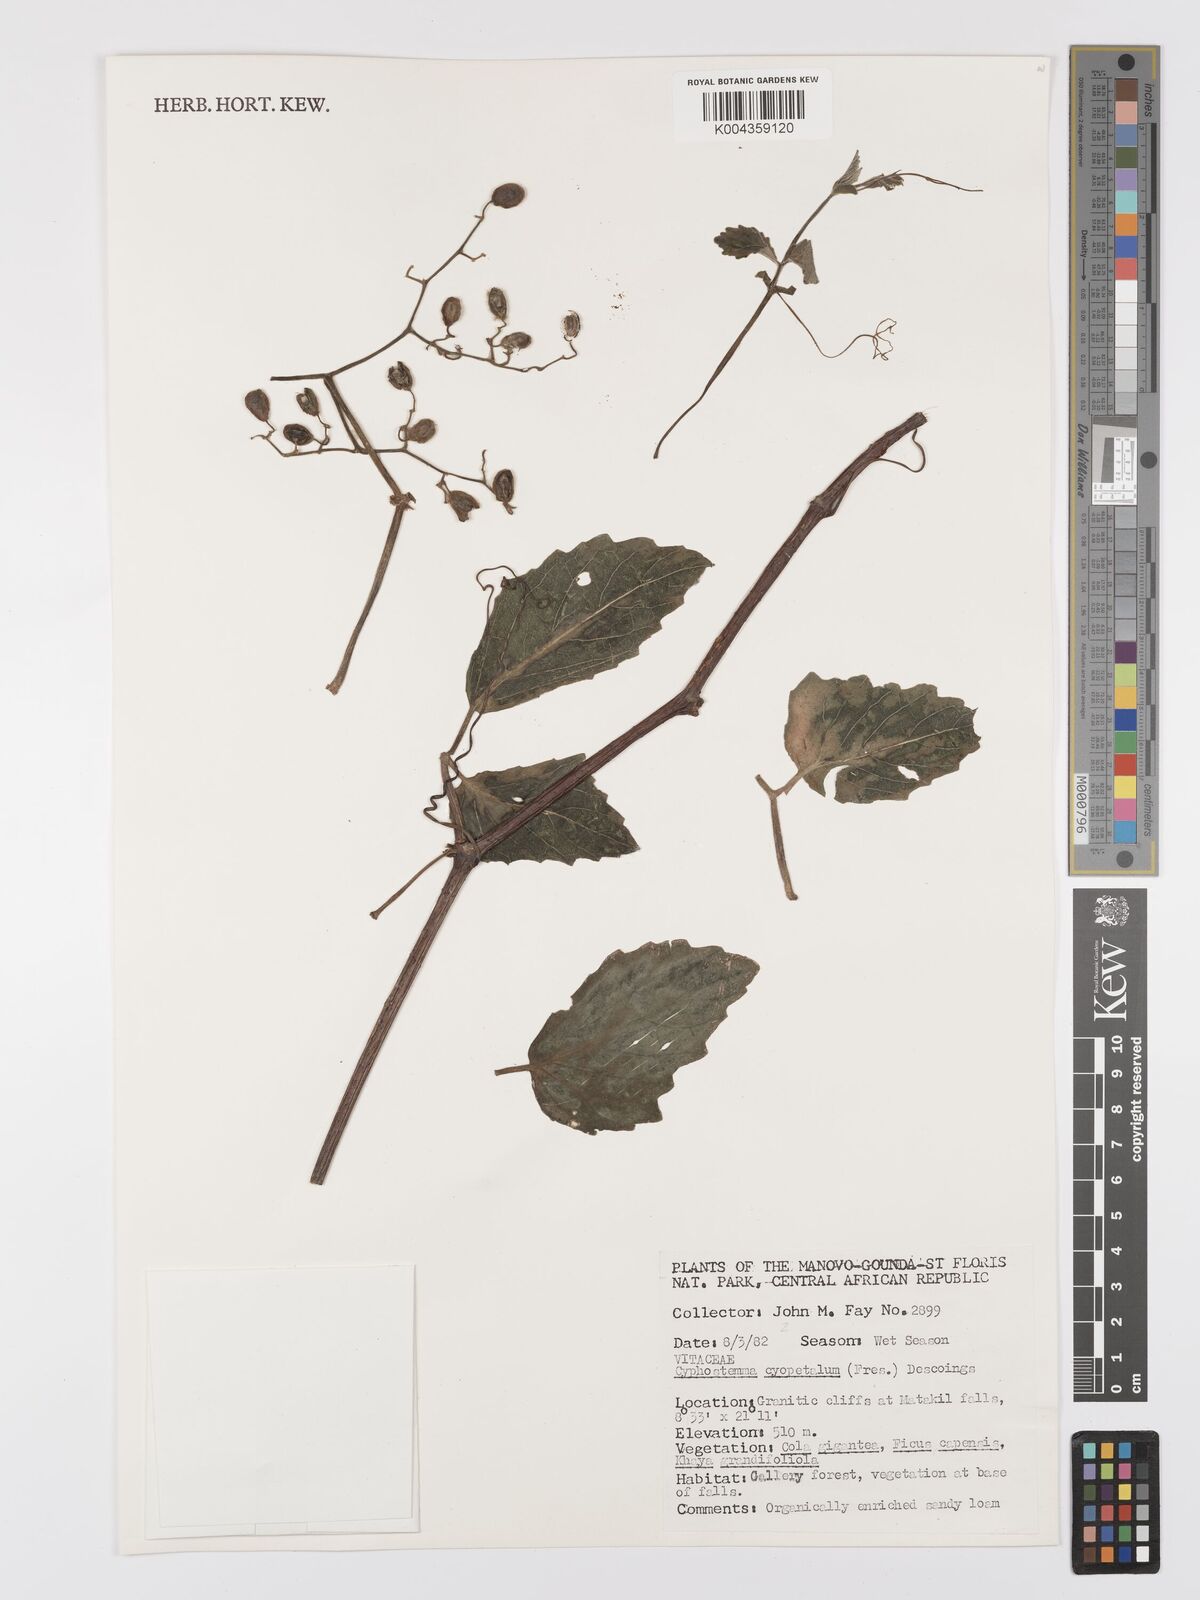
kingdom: Plantae
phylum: Tracheophyta
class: Magnoliopsida
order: Vitales
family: Vitaceae
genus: Cyphostemma
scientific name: Cyphostemma cyphopetalum
